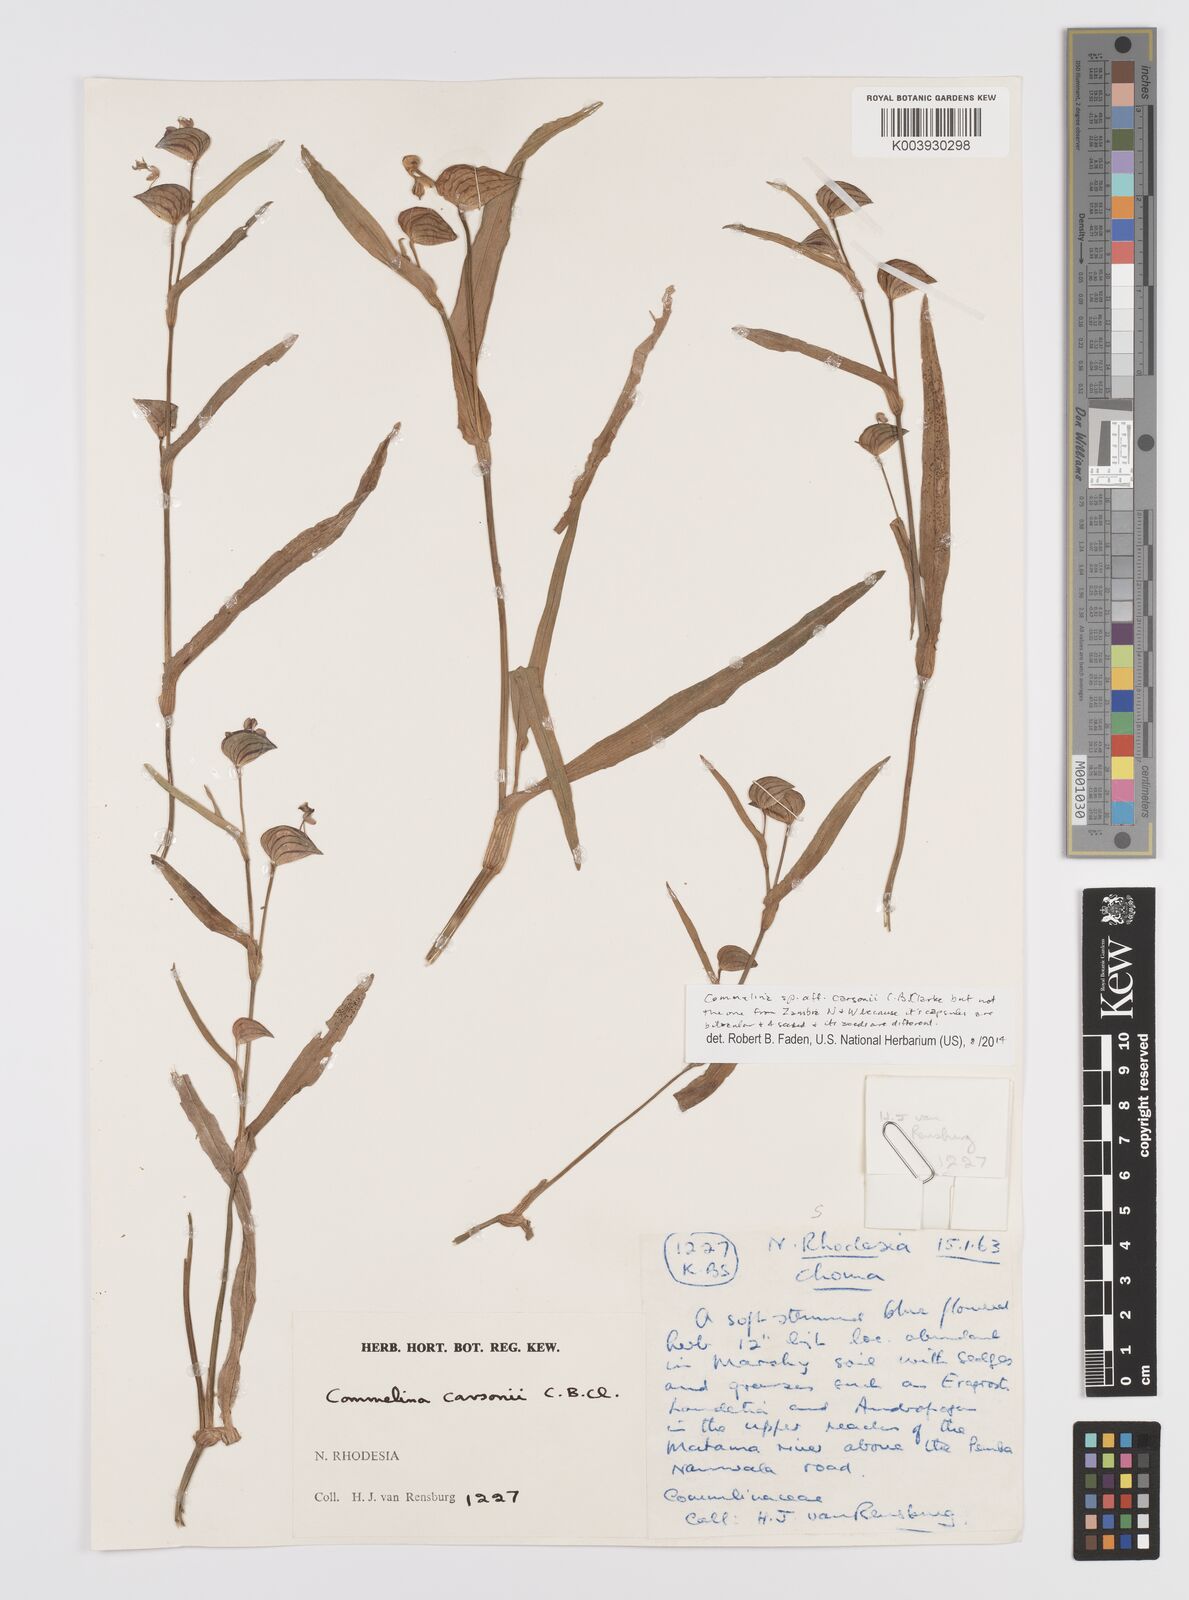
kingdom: Plantae
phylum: Tracheophyta
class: Liliopsida
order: Commelinales
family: Commelinaceae
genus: Commelina
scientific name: Commelina schweinfurthii
